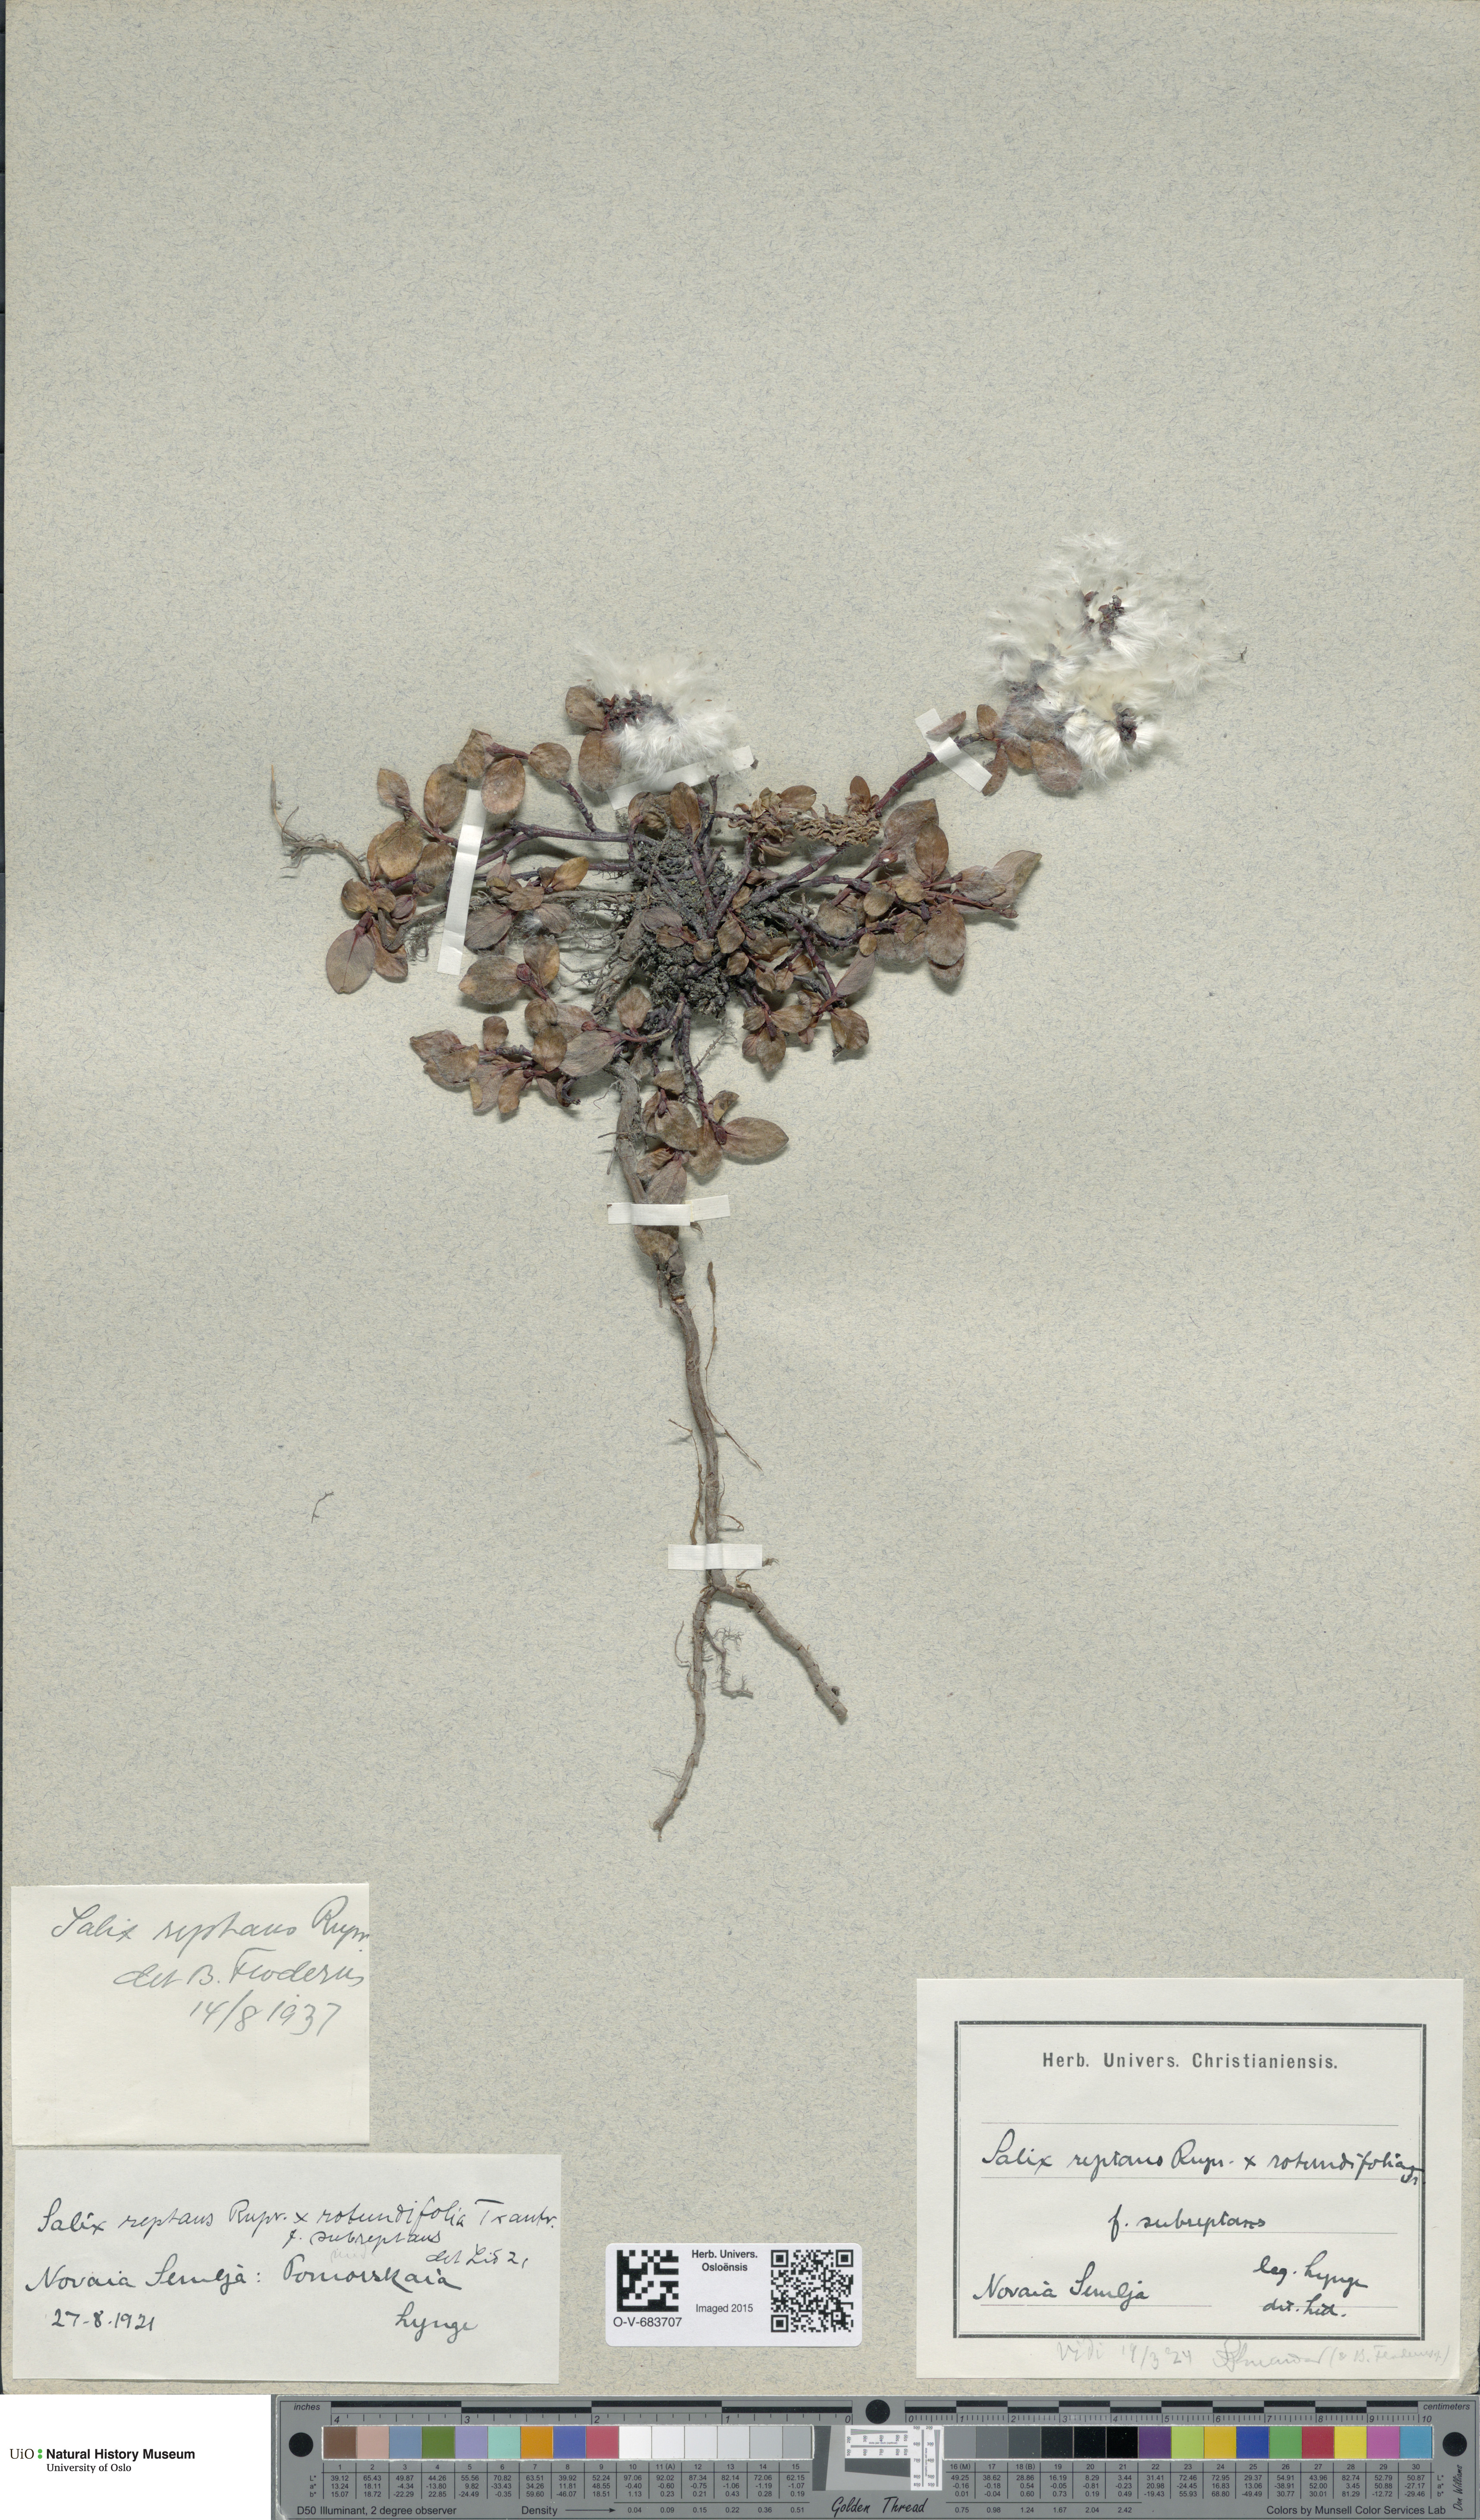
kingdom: Plantae
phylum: Tracheophyta
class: Magnoliopsida
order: Malpighiales
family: Salicaceae
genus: Salix
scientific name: Salix reptans
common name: Arctic creeping willow
